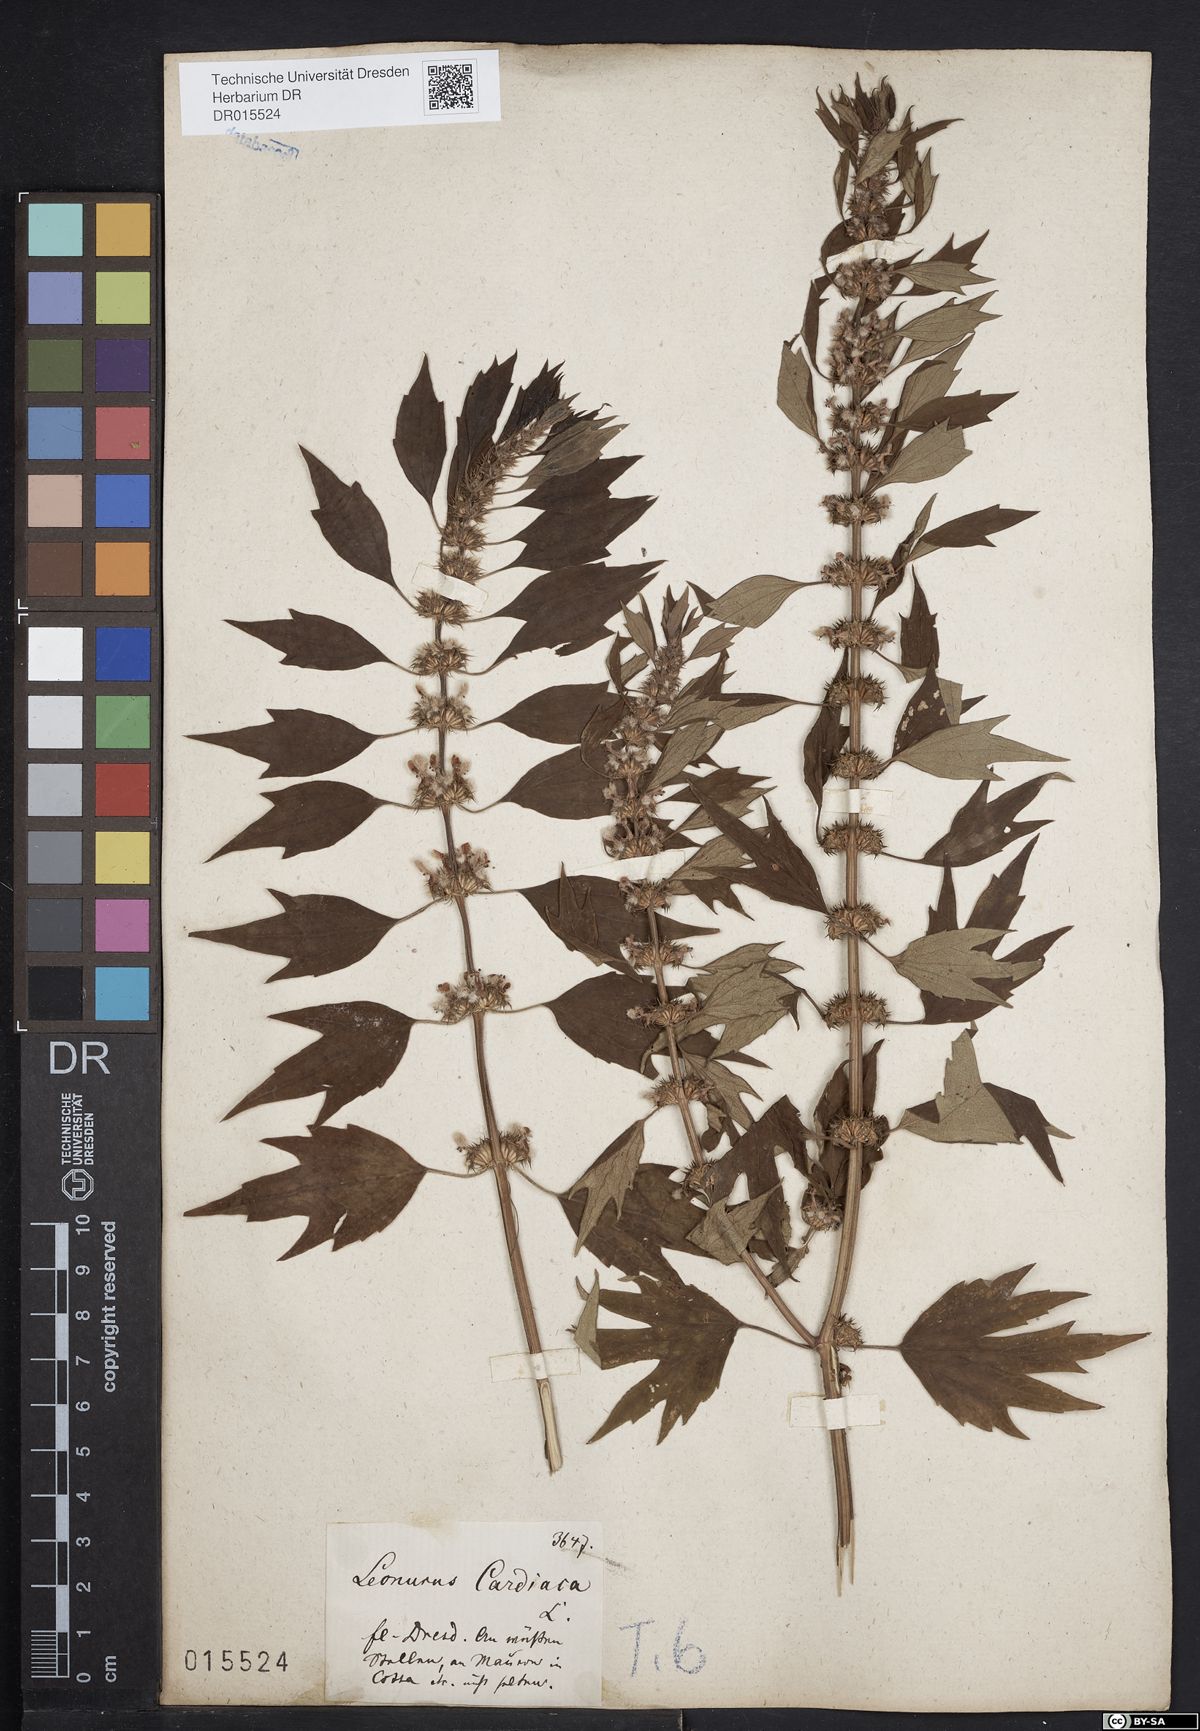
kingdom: Plantae
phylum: Tracheophyta
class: Magnoliopsida
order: Lamiales
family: Lamiaceae
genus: Leonurus
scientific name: Leonurus cardiaca
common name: Motherwort
